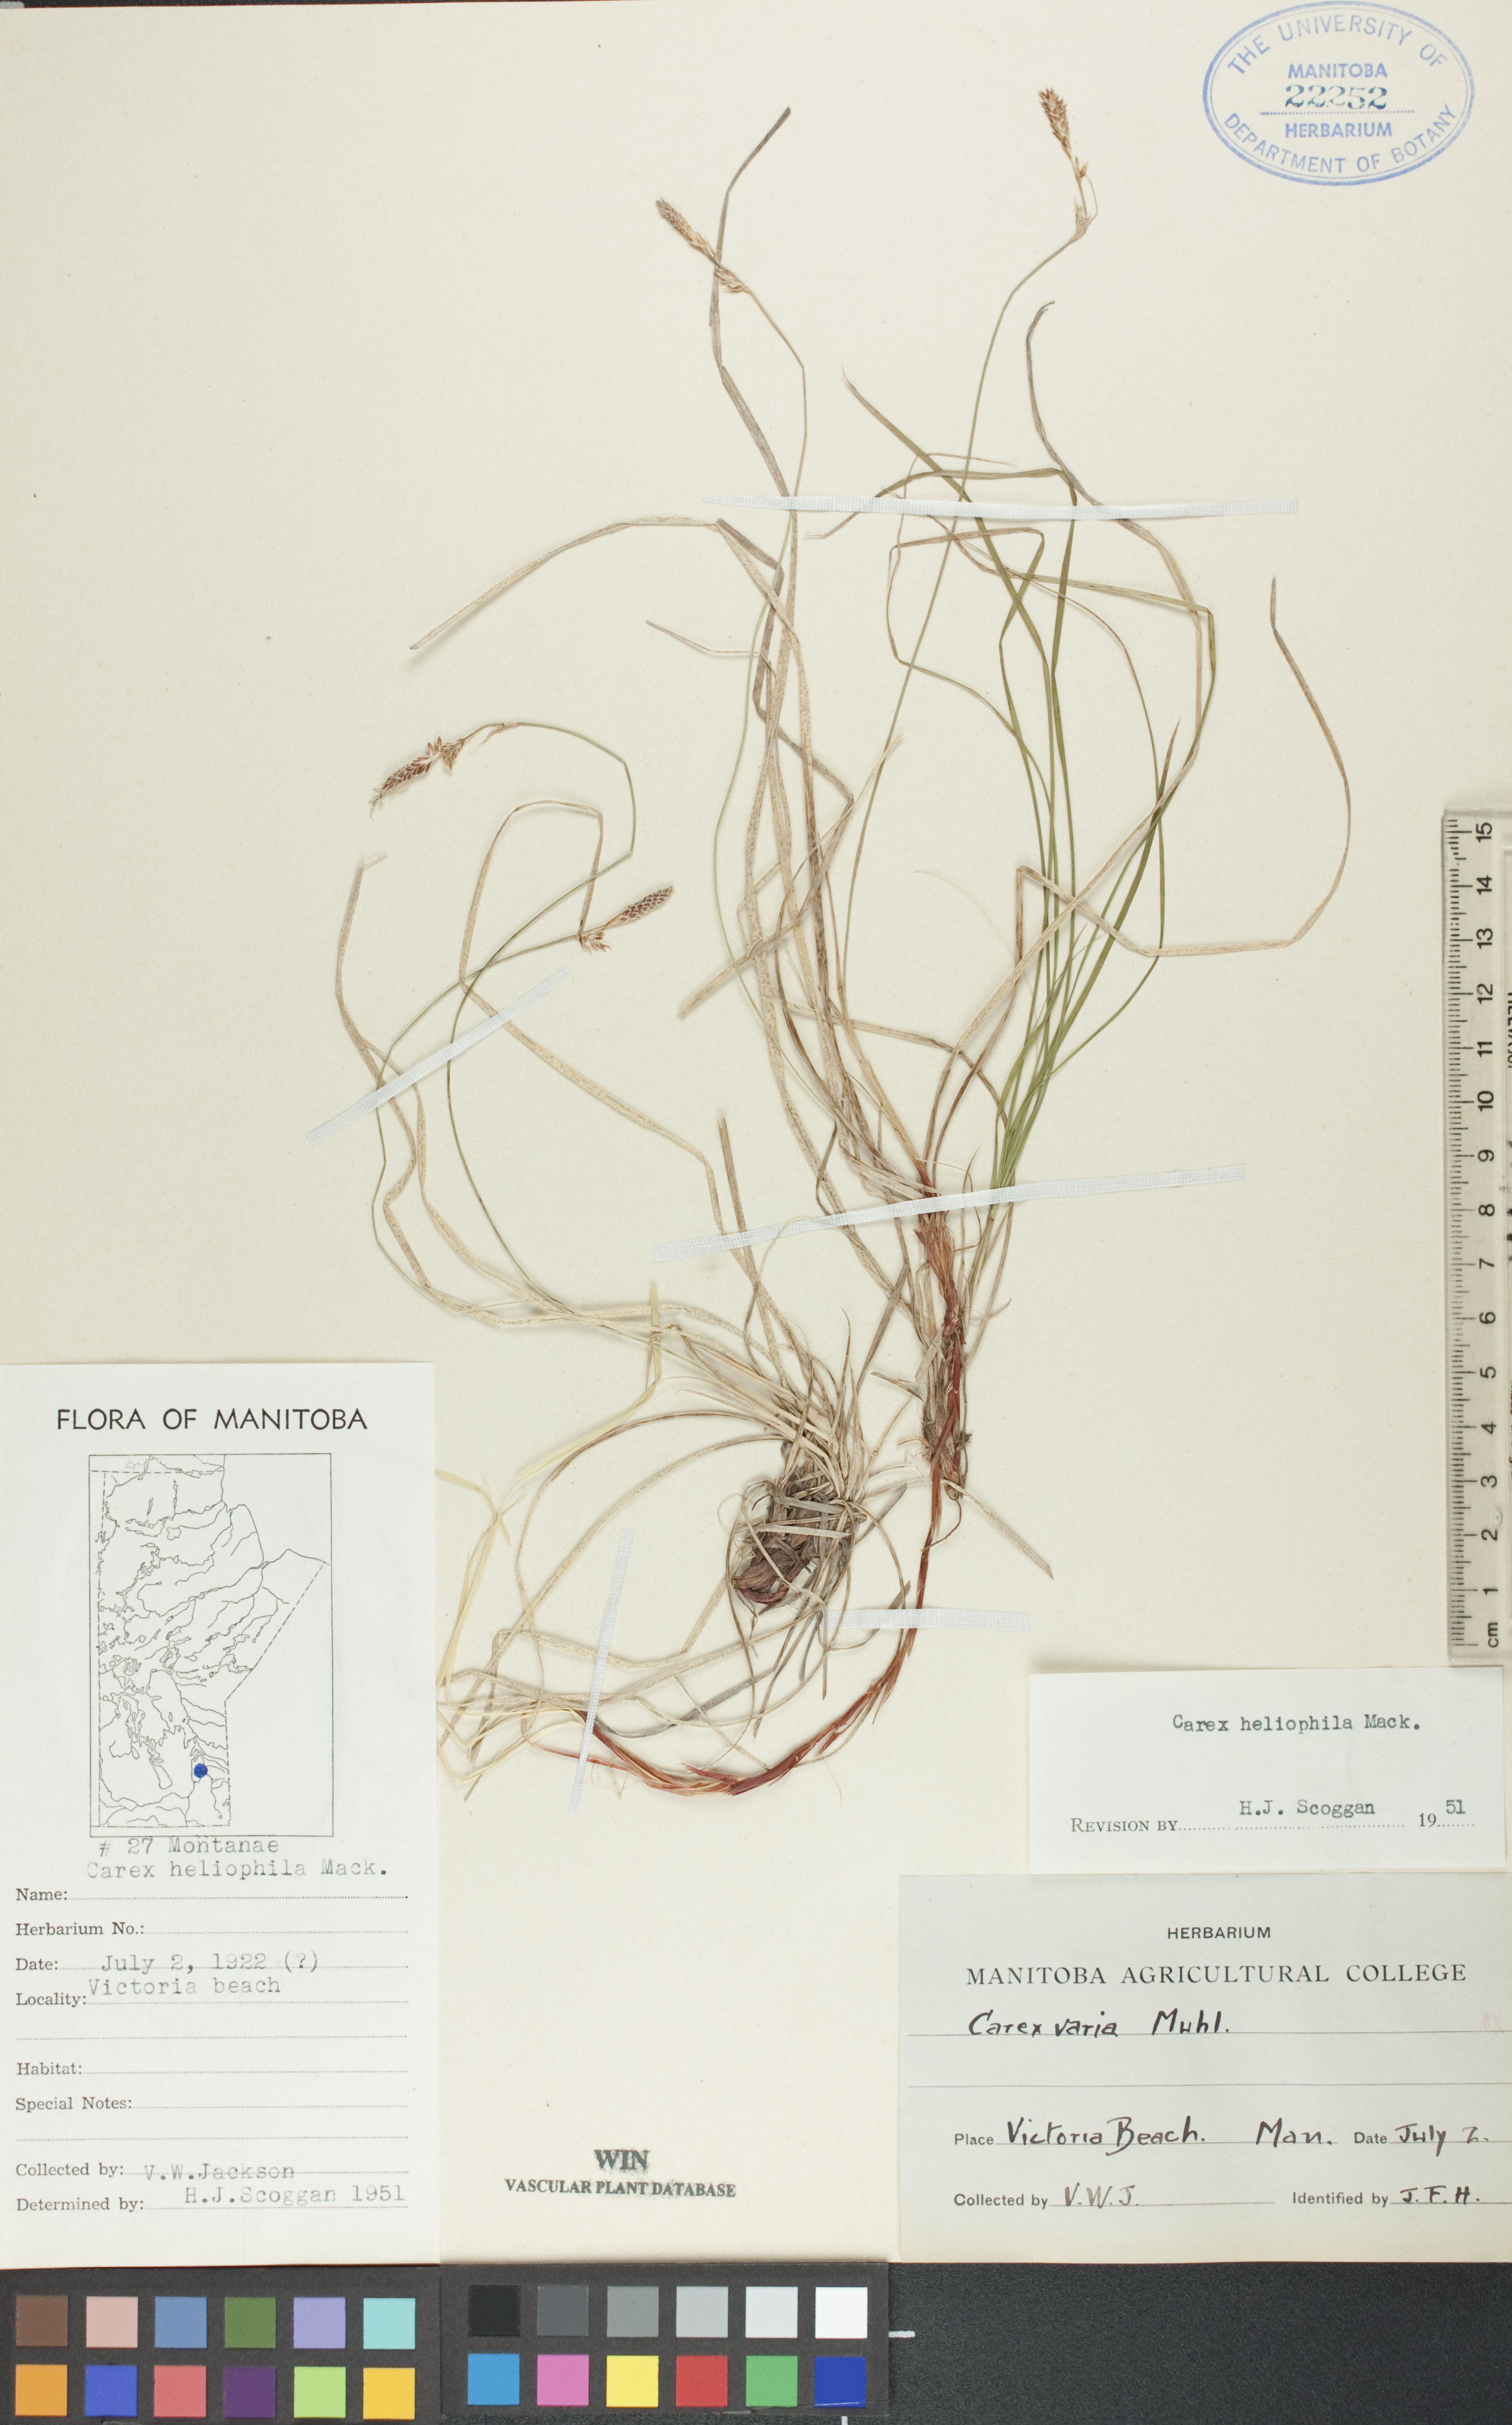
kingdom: Plantae
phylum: Tracheophyta
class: Liliopsida
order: Poales
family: Cyperaceae
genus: Carex
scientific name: Carex inops
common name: Long-stolon sedge
